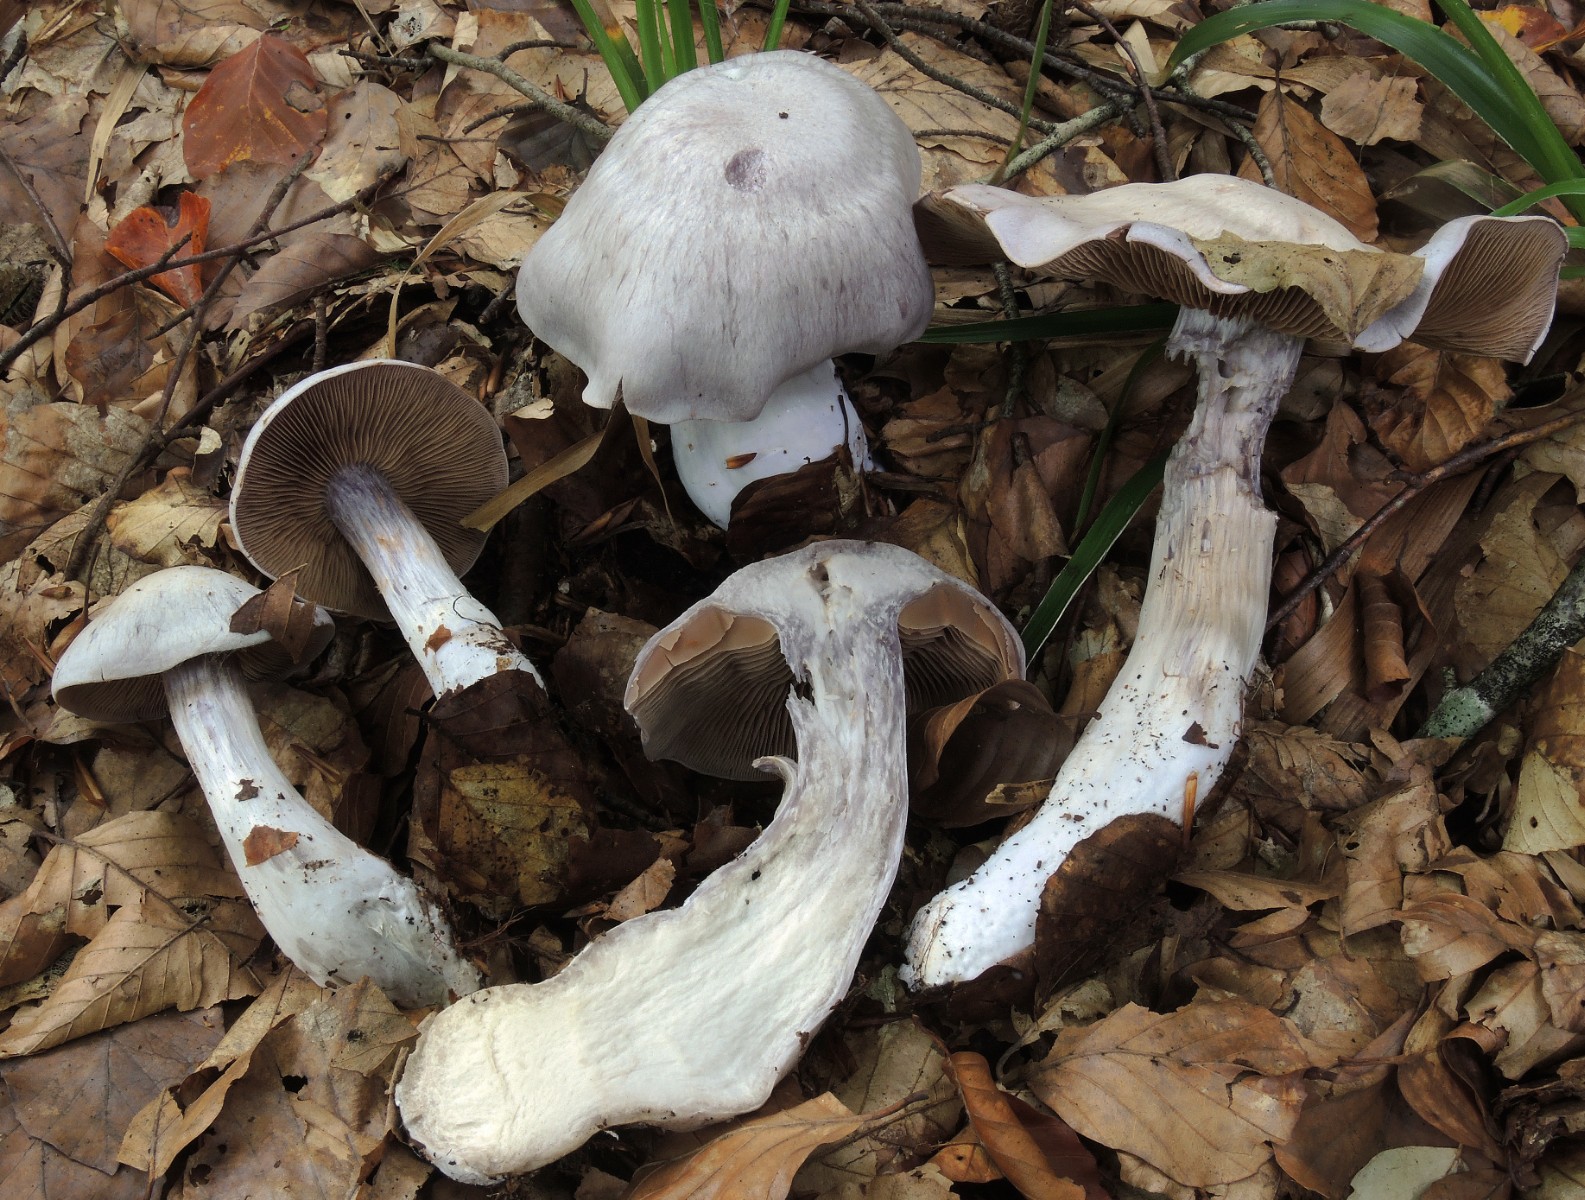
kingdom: Fungi
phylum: Basidiomycota
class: Agaricomycetes
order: Agaricales
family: Cortinariaceae
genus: Cortinarius
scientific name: Cortinarius alboviolaceus
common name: lysviolet slørhat
